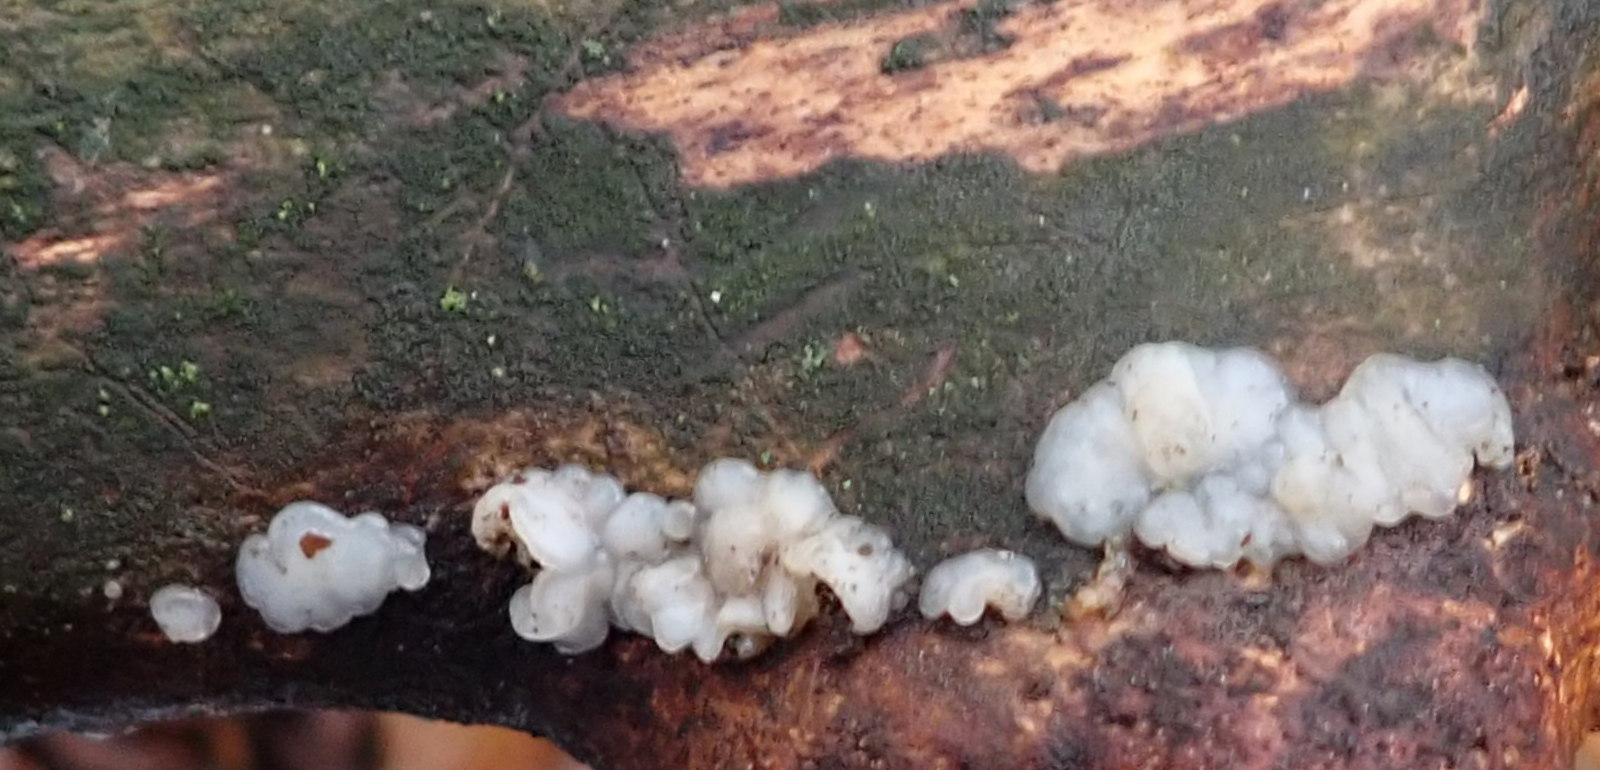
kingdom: Fungi
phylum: Basidiomycota
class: Agaricomycetes
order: Auriculariales
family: Auriculariaceae
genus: Exidia
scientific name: Exidia thuretiana
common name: hvidlig bævretop
